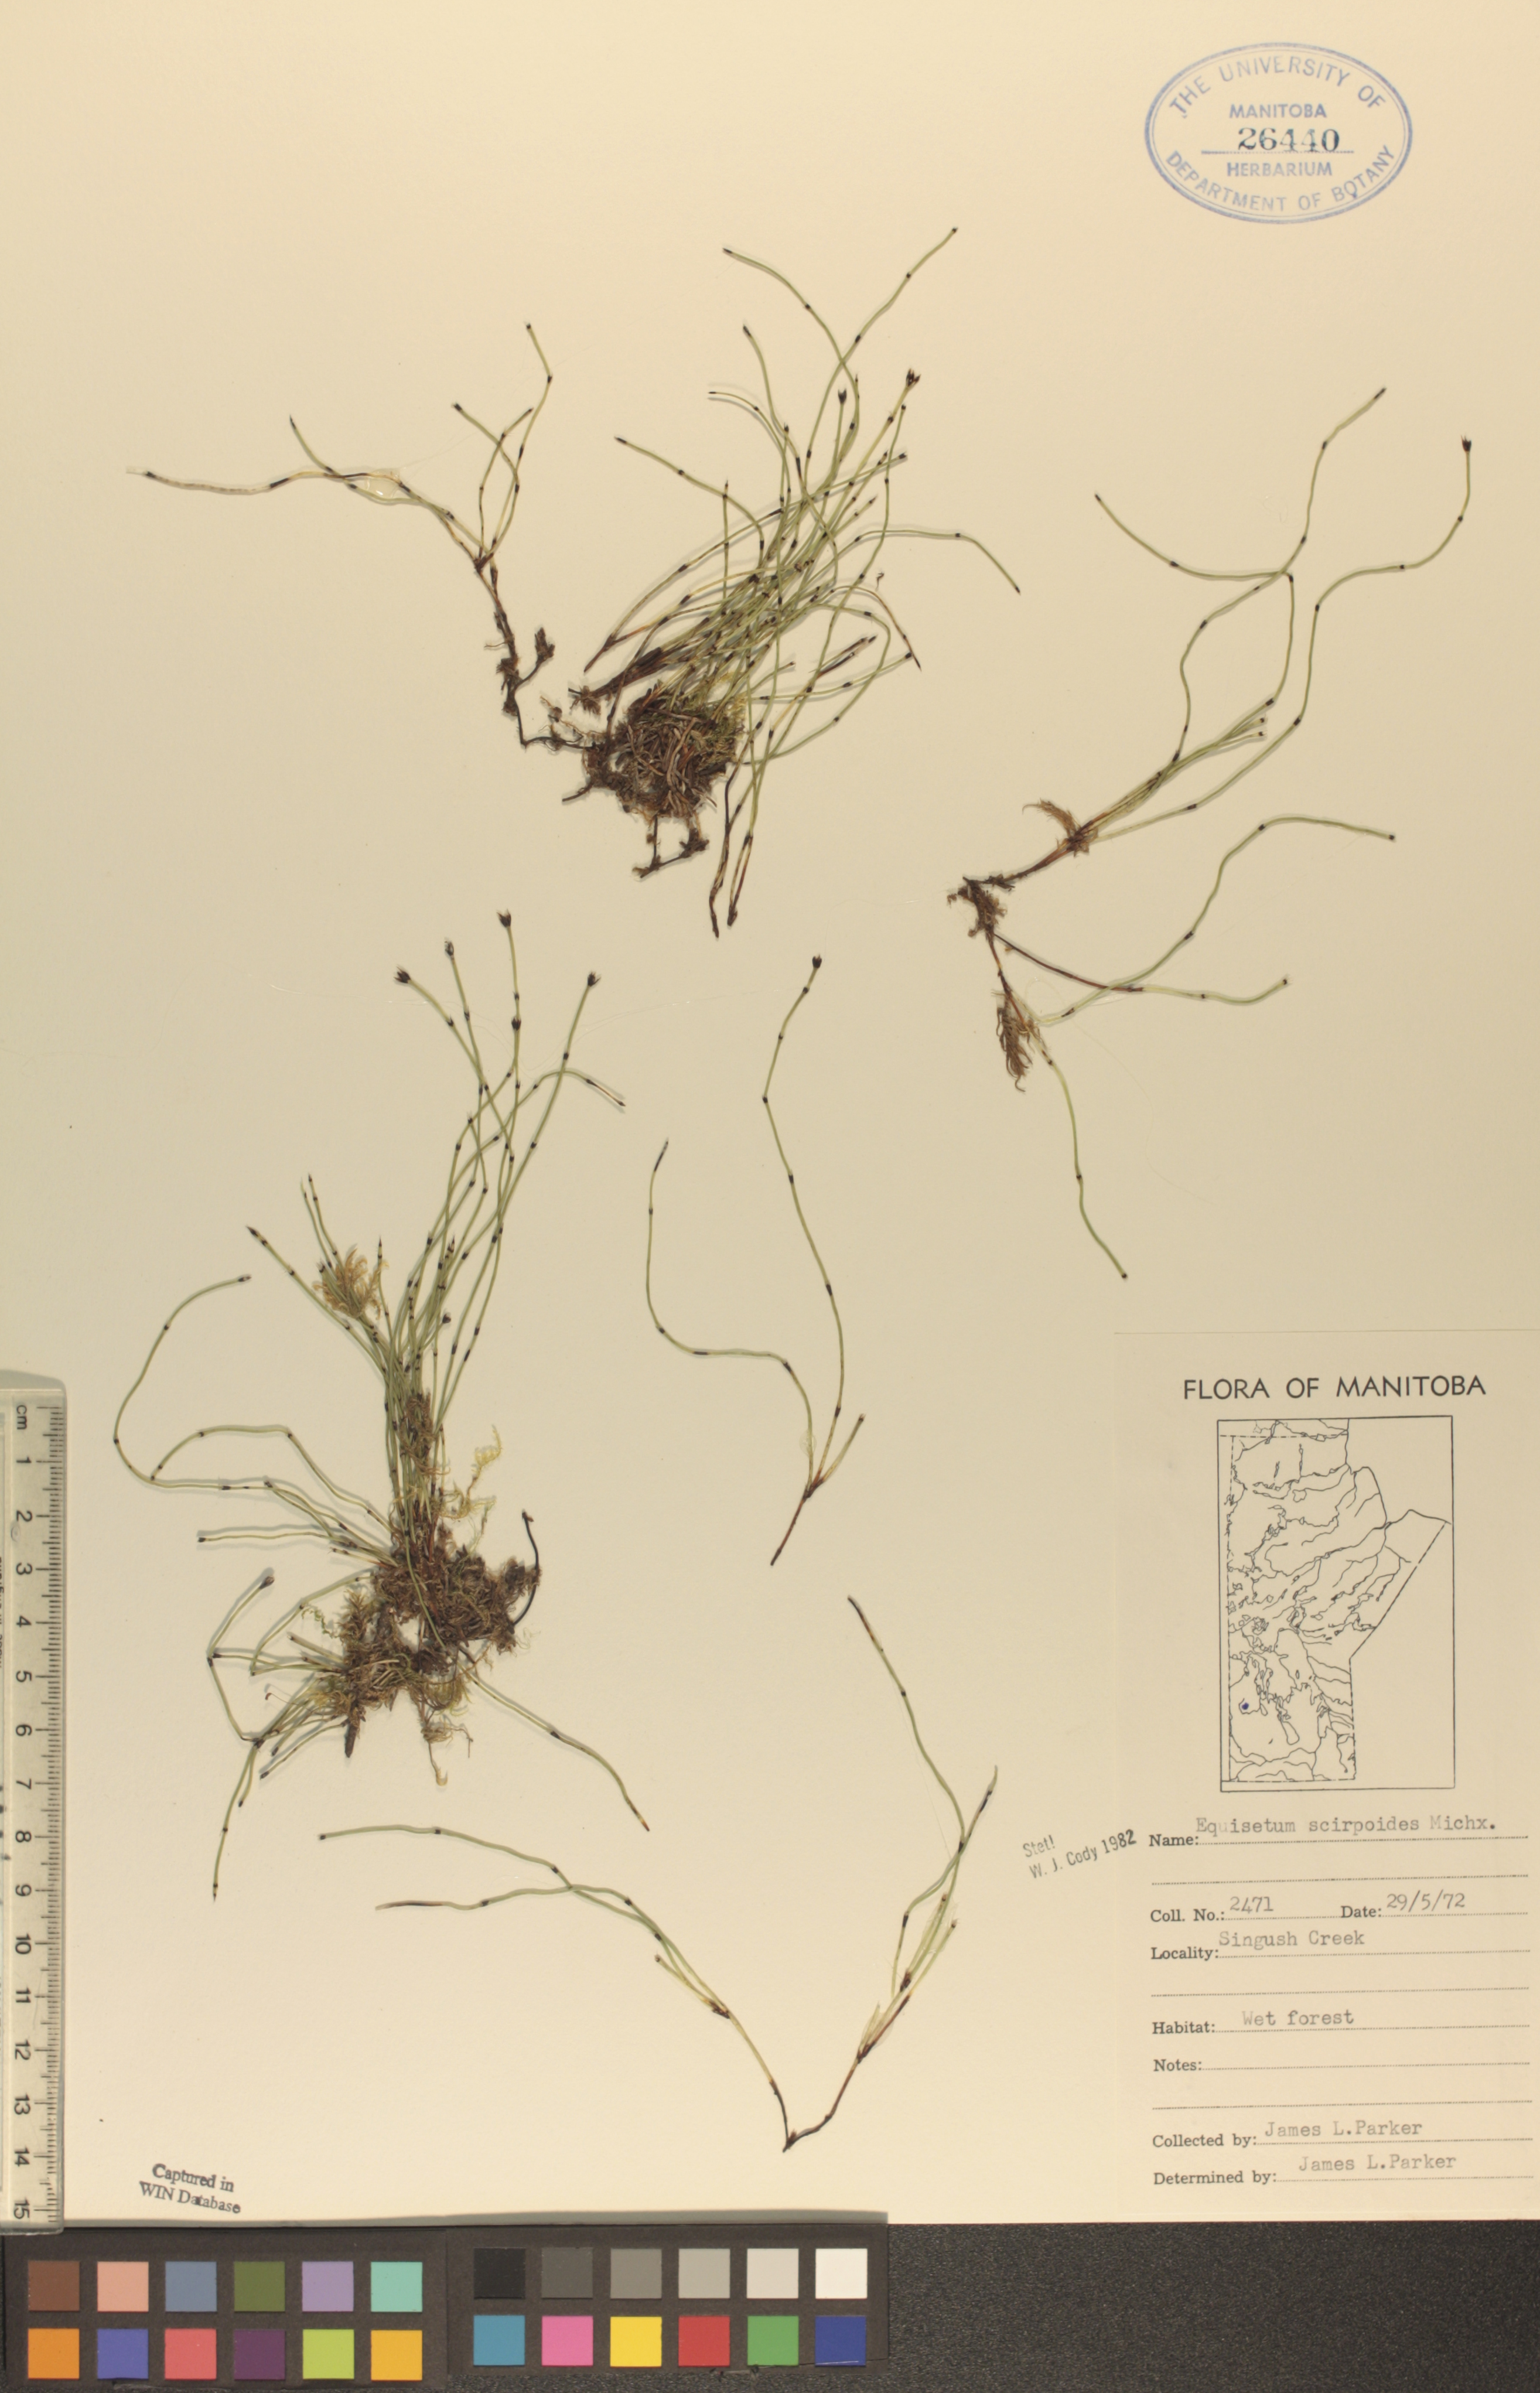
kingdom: Plantae
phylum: Tracheophyta
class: Polypodiopsida
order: Equisetales
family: Equisetaceae
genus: Equisetum
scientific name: Equisetum scirpoides
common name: Delicate horsetail
